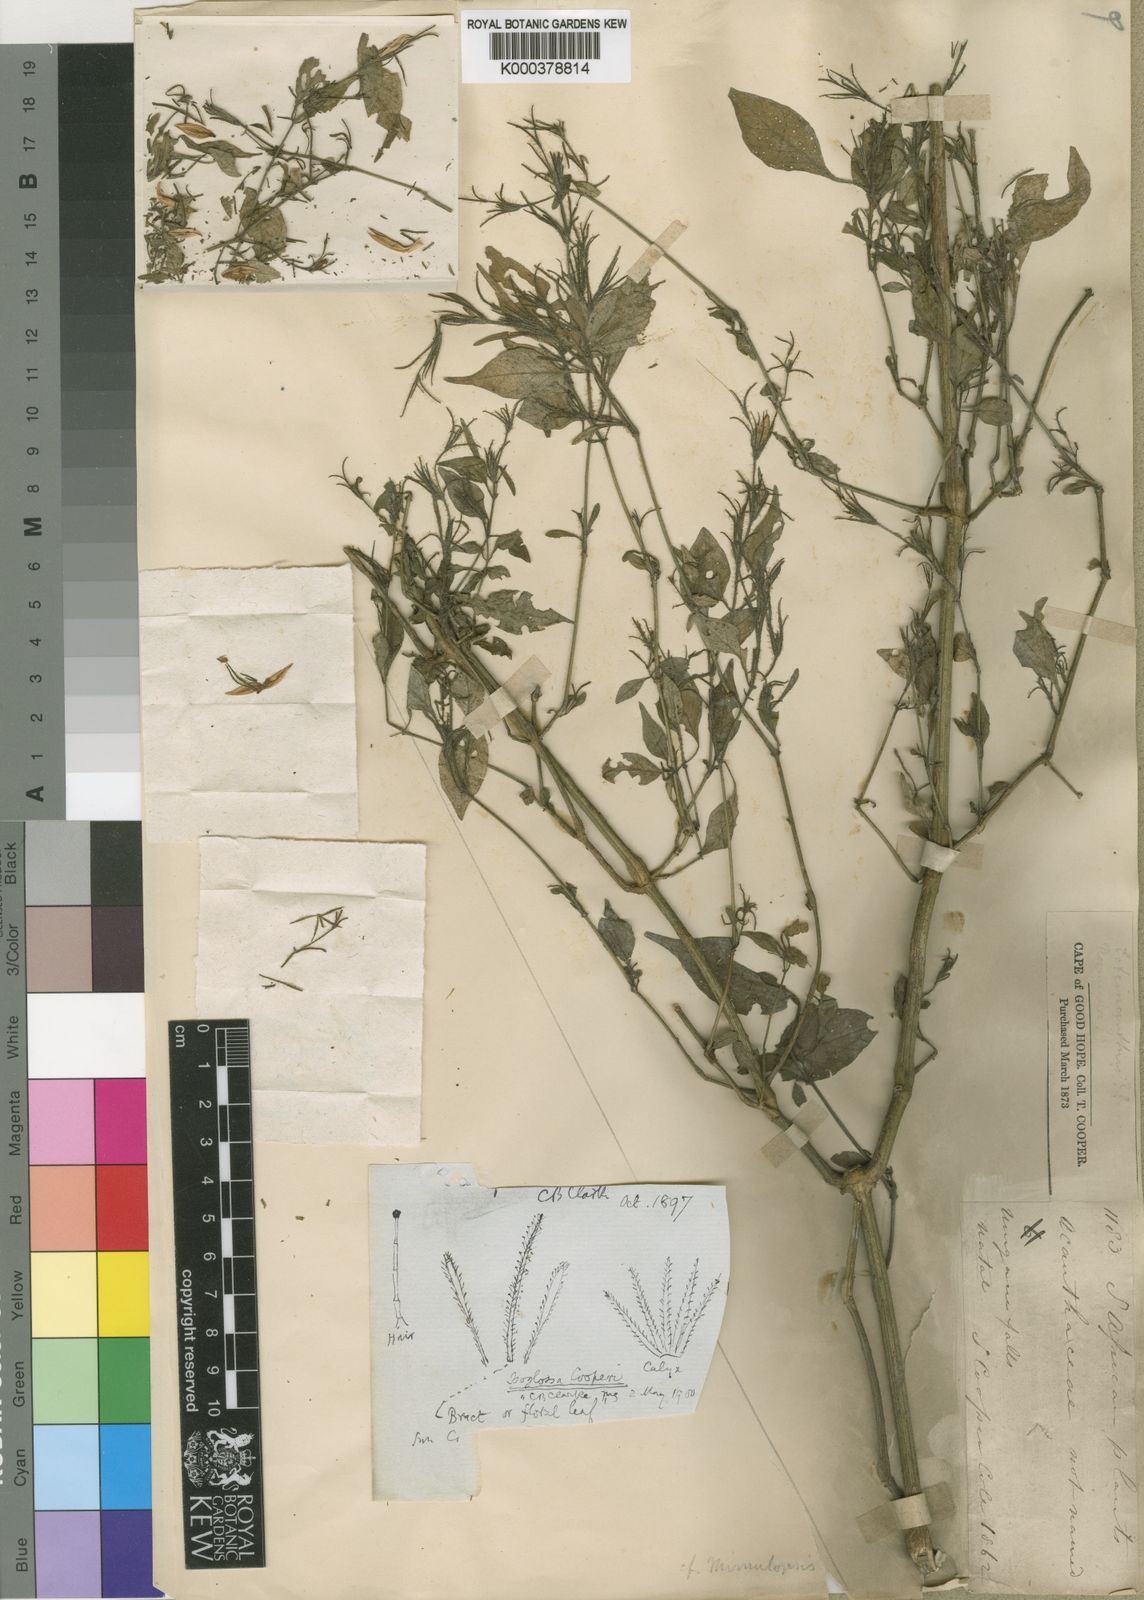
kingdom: Plantae
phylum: Tracheophyta
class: Magnoliopsida
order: Lamiales
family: Acanthaceae
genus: Isoglossa
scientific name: Isoglossa cooperi
